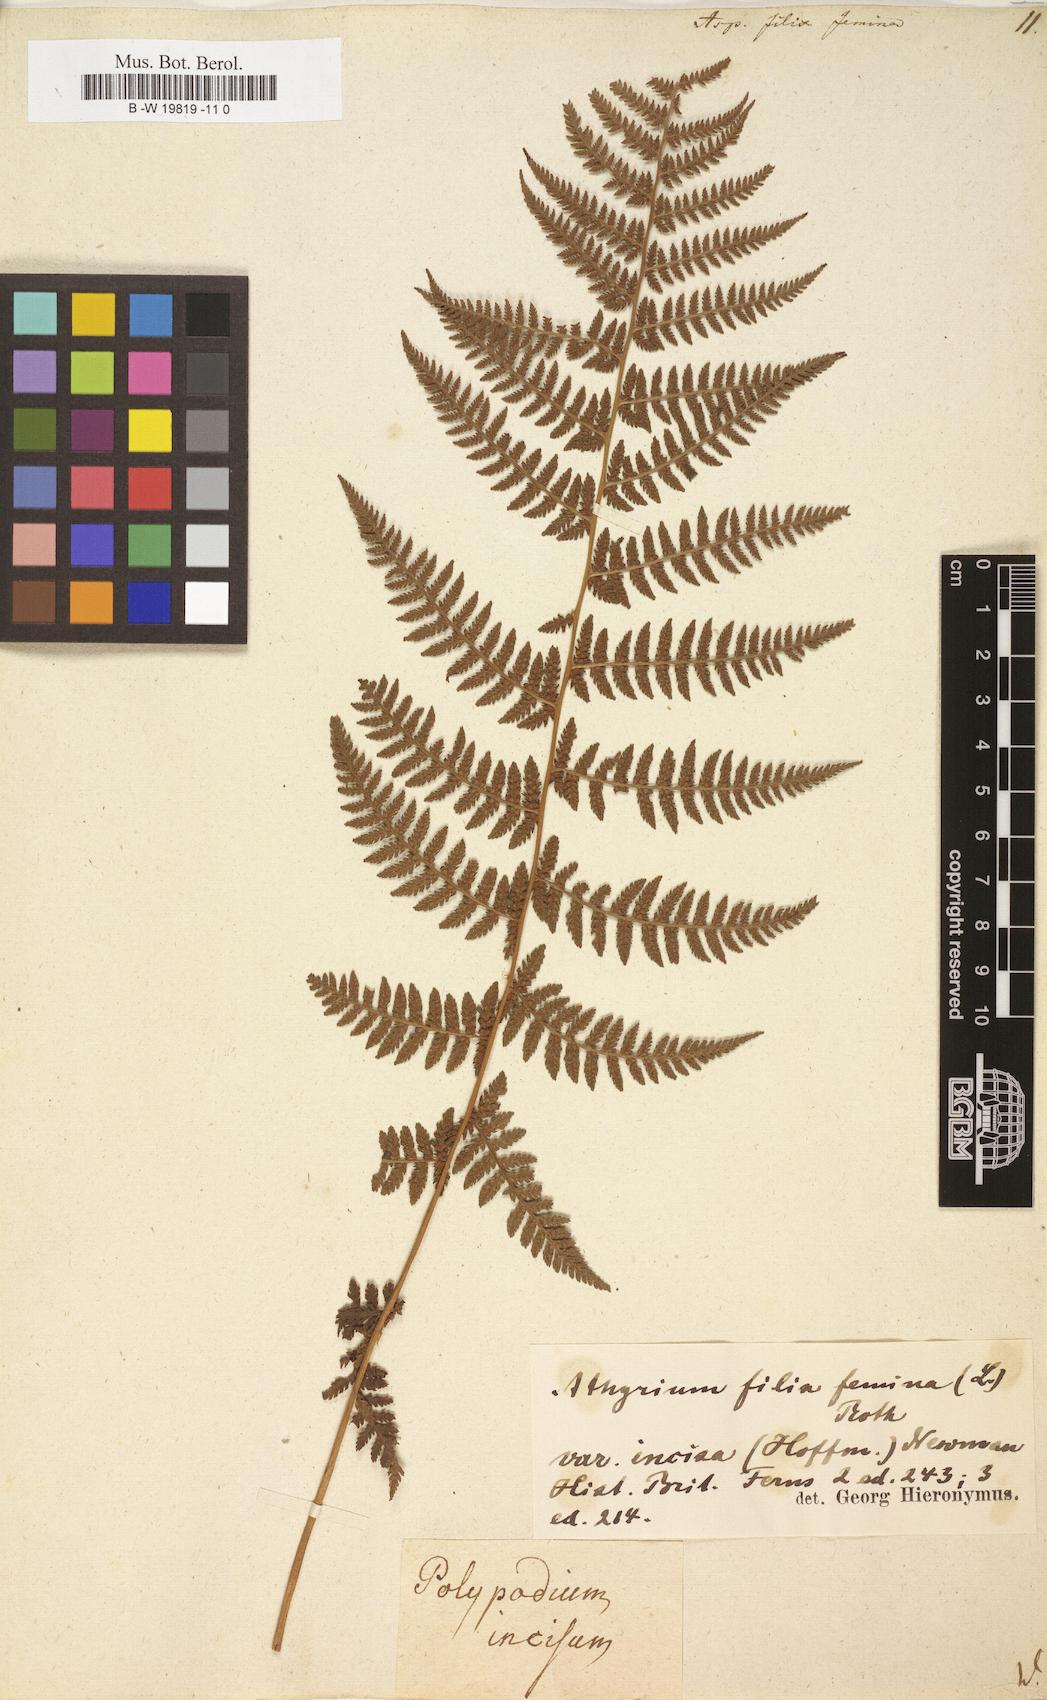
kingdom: Plantae
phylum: Tracheophyta
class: Polypodiopsida
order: Polypodiales
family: Athyriaceae
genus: Athyrium
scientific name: Athyrium filix-femina
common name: Lady fern
